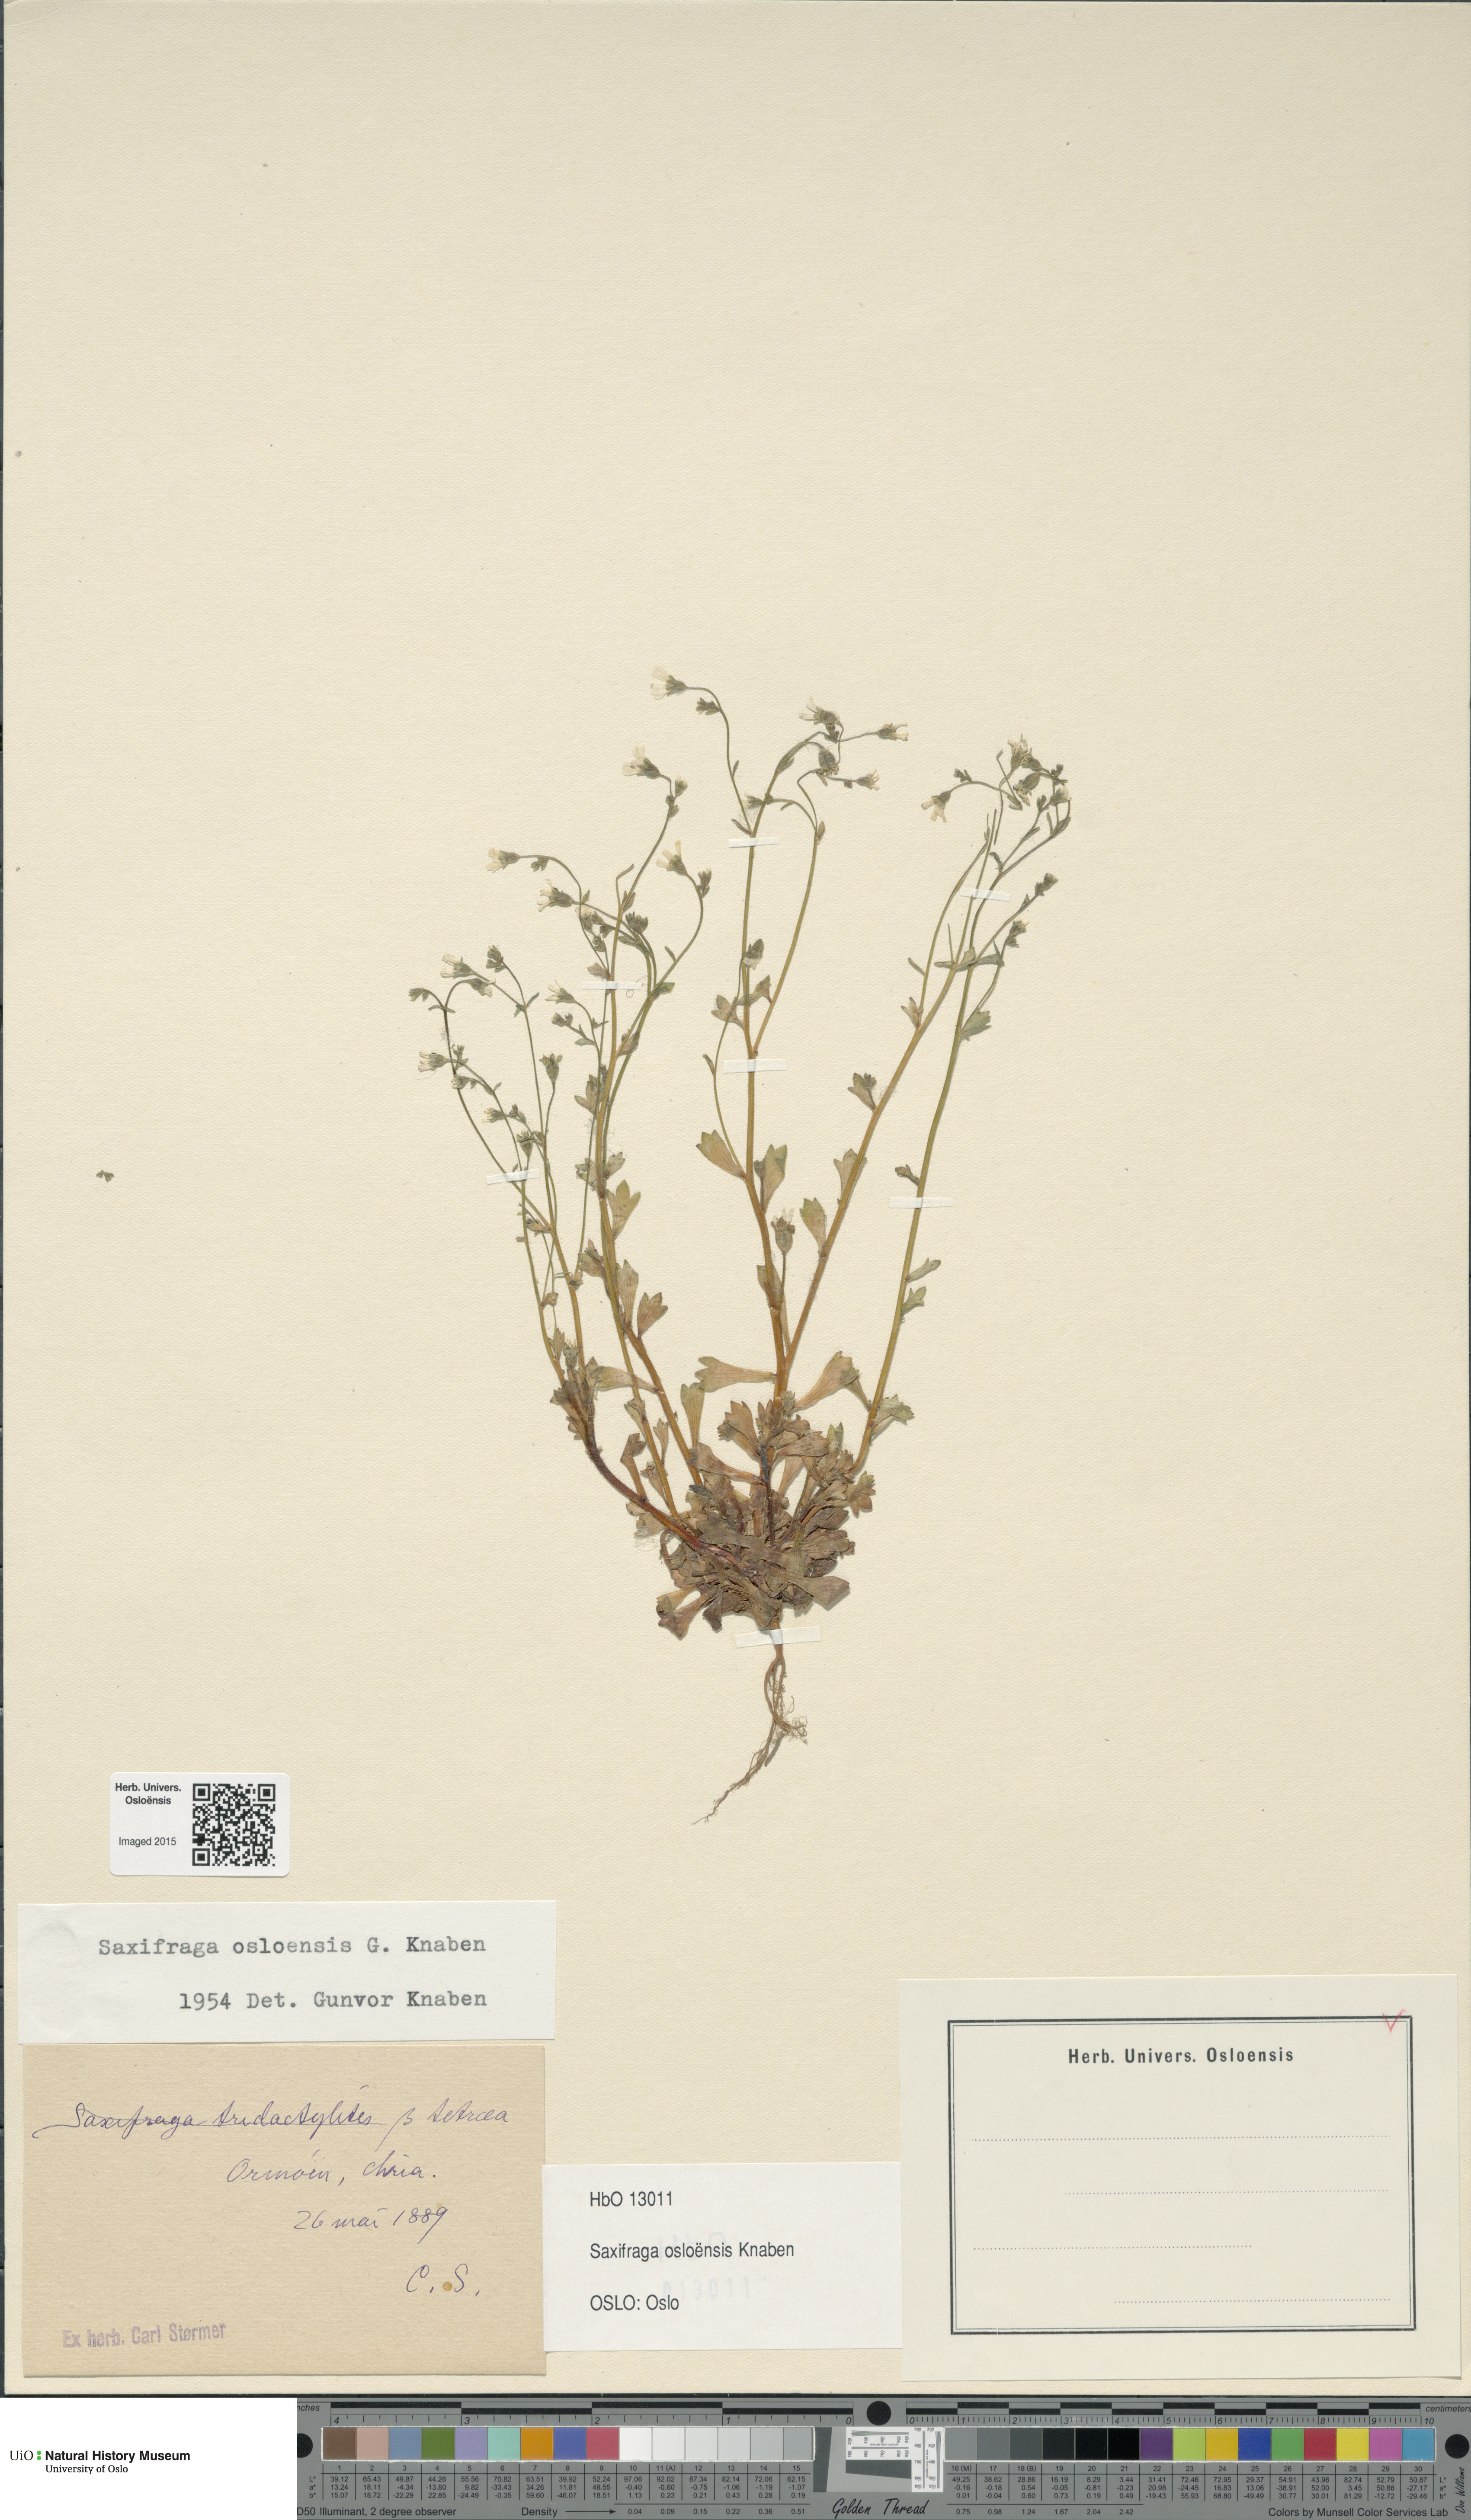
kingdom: Plantae
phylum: Tracheophyta
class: Magnoliopsida
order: Saxifragales
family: Saxifragaceae
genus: Saxifraga
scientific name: Saxifraga osloensis
